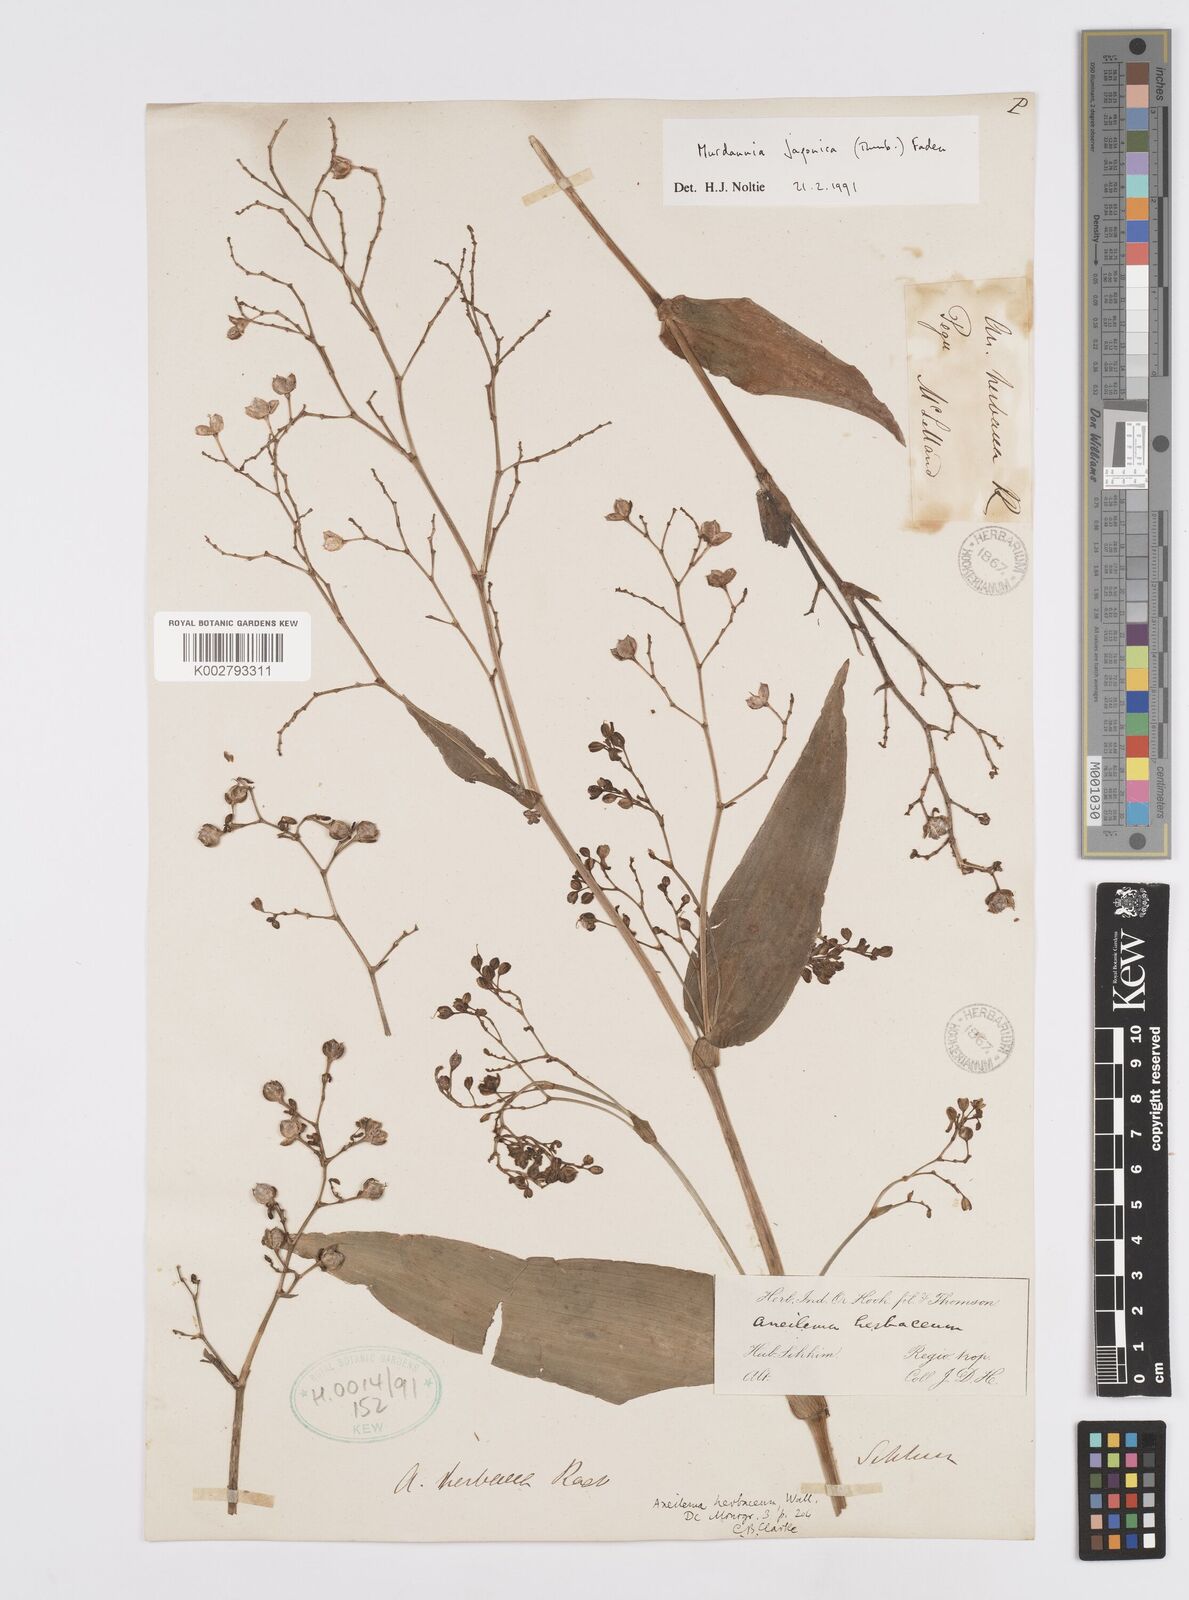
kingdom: Plantae
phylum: Tracheophyta
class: Liliopsida
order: Commelinales
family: Commelinaceae
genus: Murdannia
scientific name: Murdannia japonica
